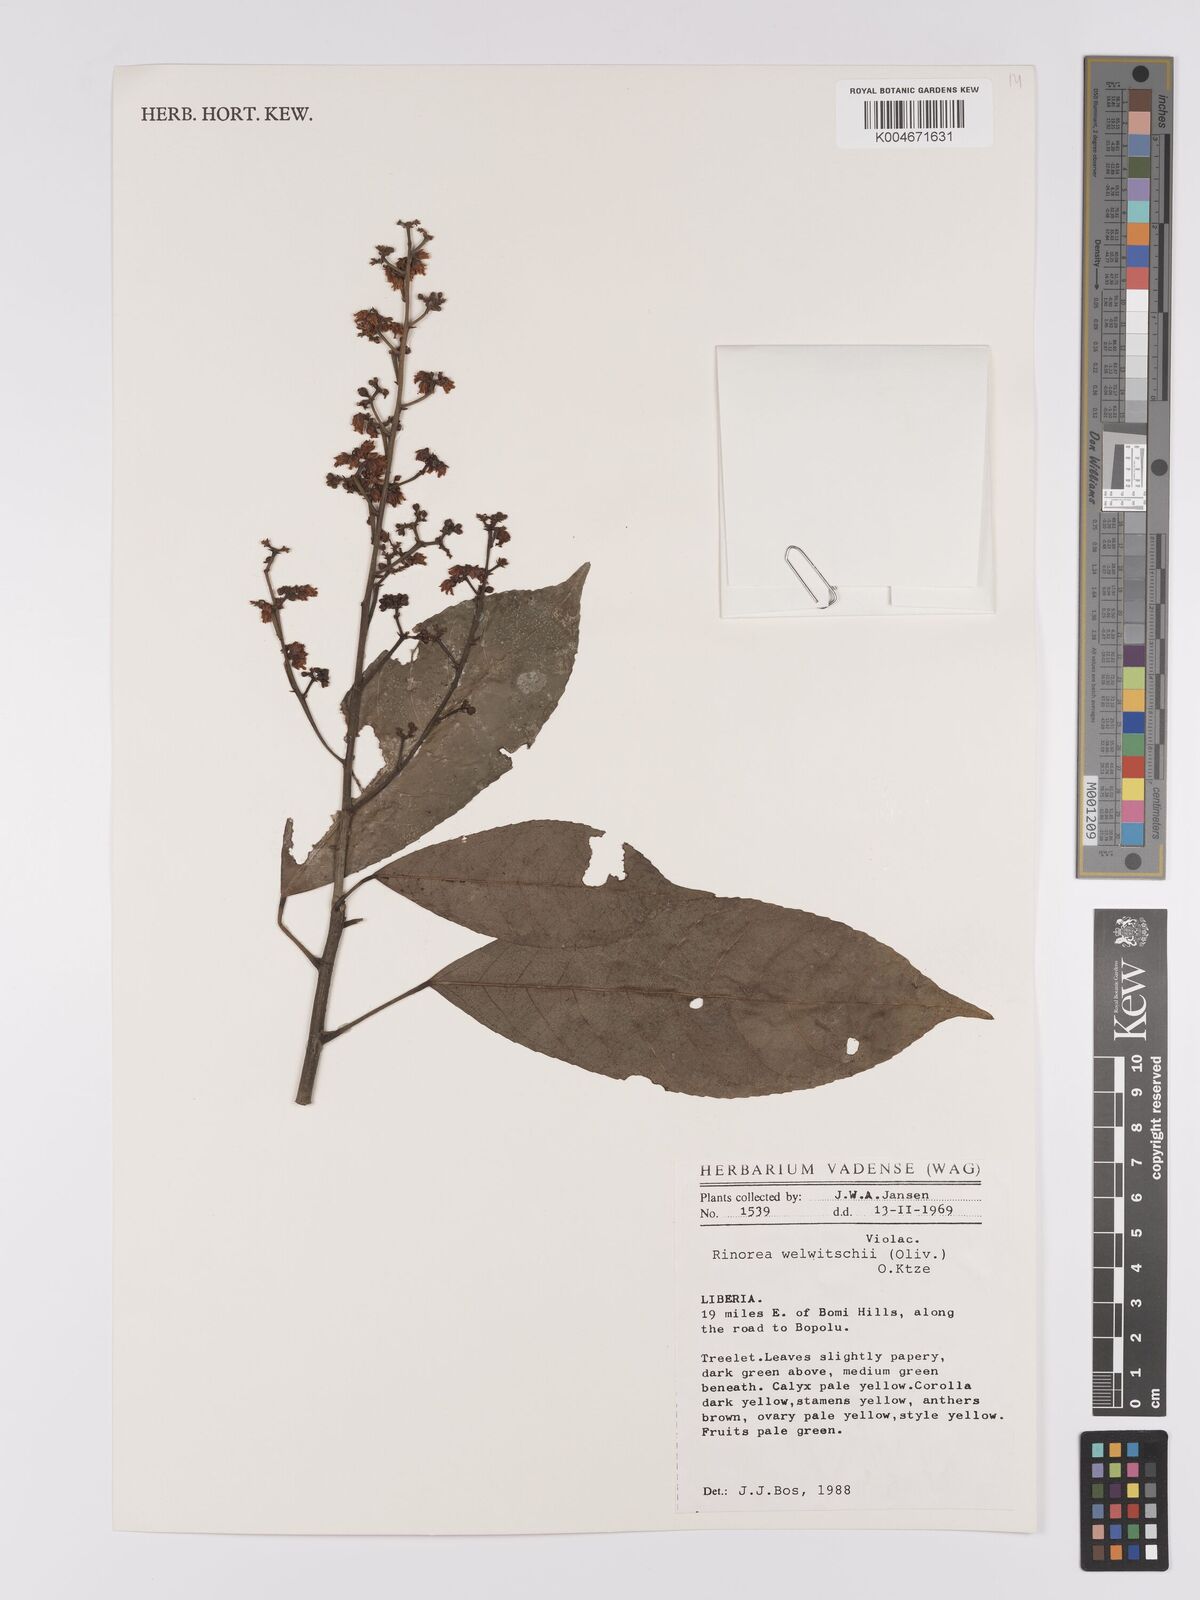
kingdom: Plantae
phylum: Tracheophyta
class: Magnoliopsida
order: Malpighiales
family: Violaceae
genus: Rinorea
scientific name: Rinorea welwitschii
